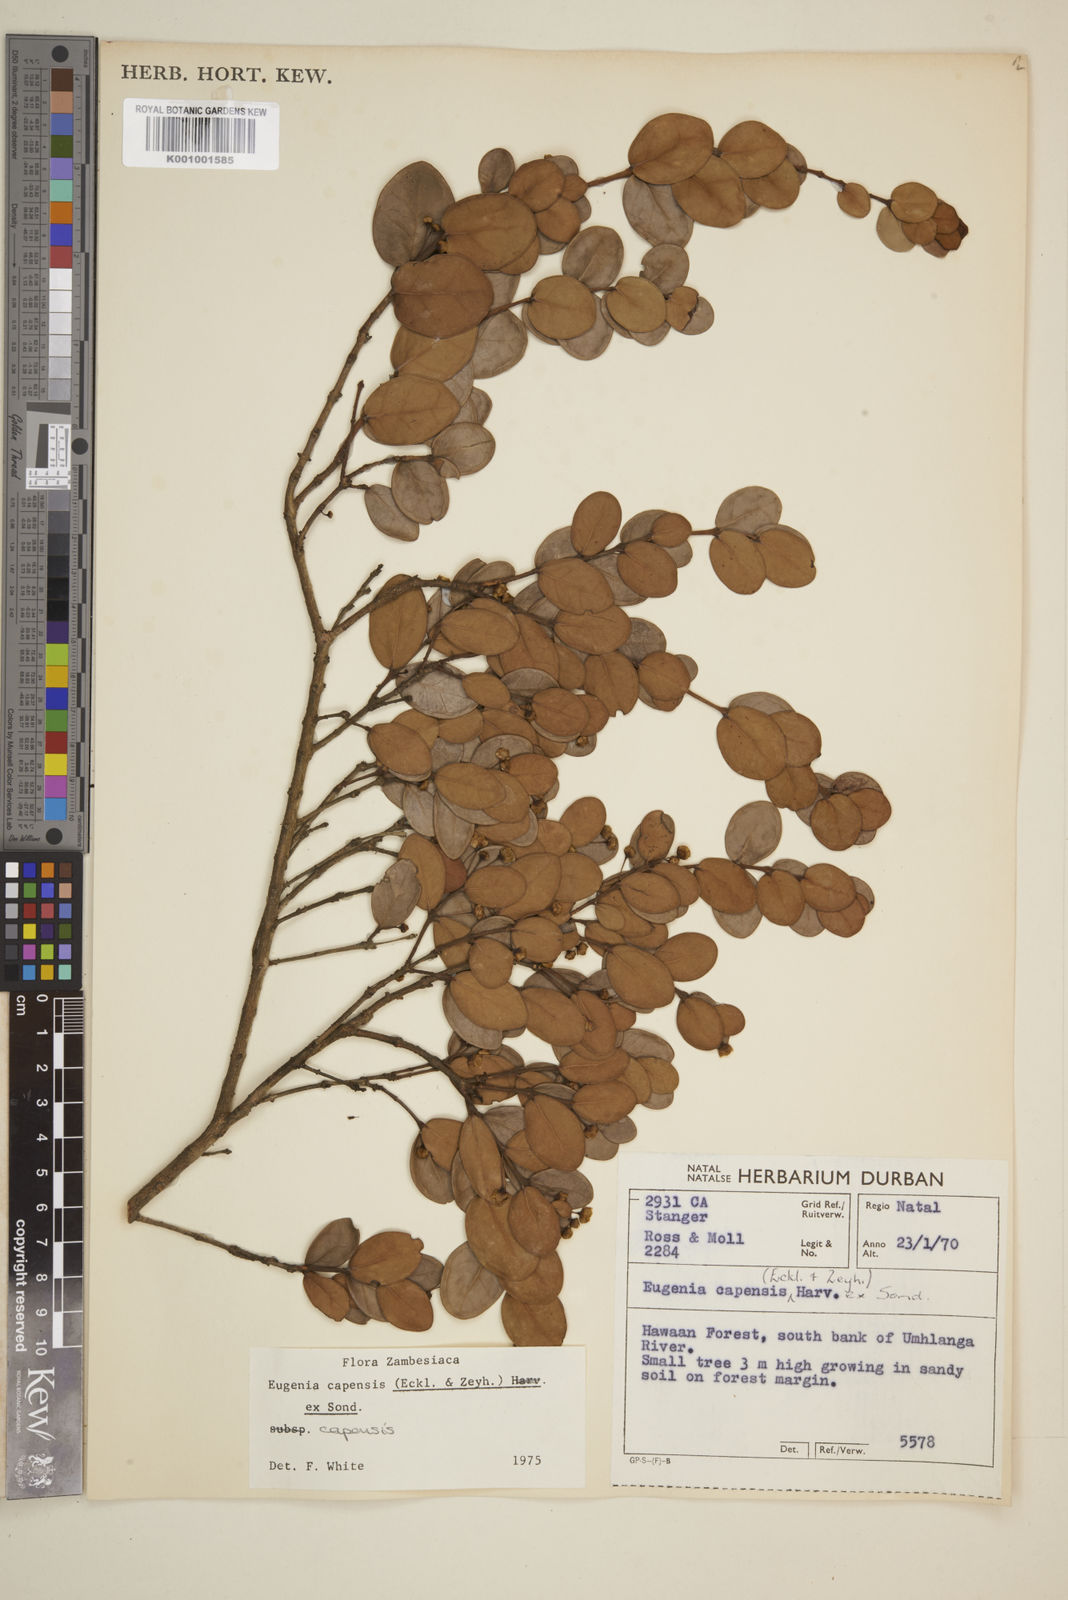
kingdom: Plantae
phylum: Tracheophyta
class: Magnoliopsida
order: Myrtales
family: Myrtaceae
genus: Eugenia
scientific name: Eugenia capensis
